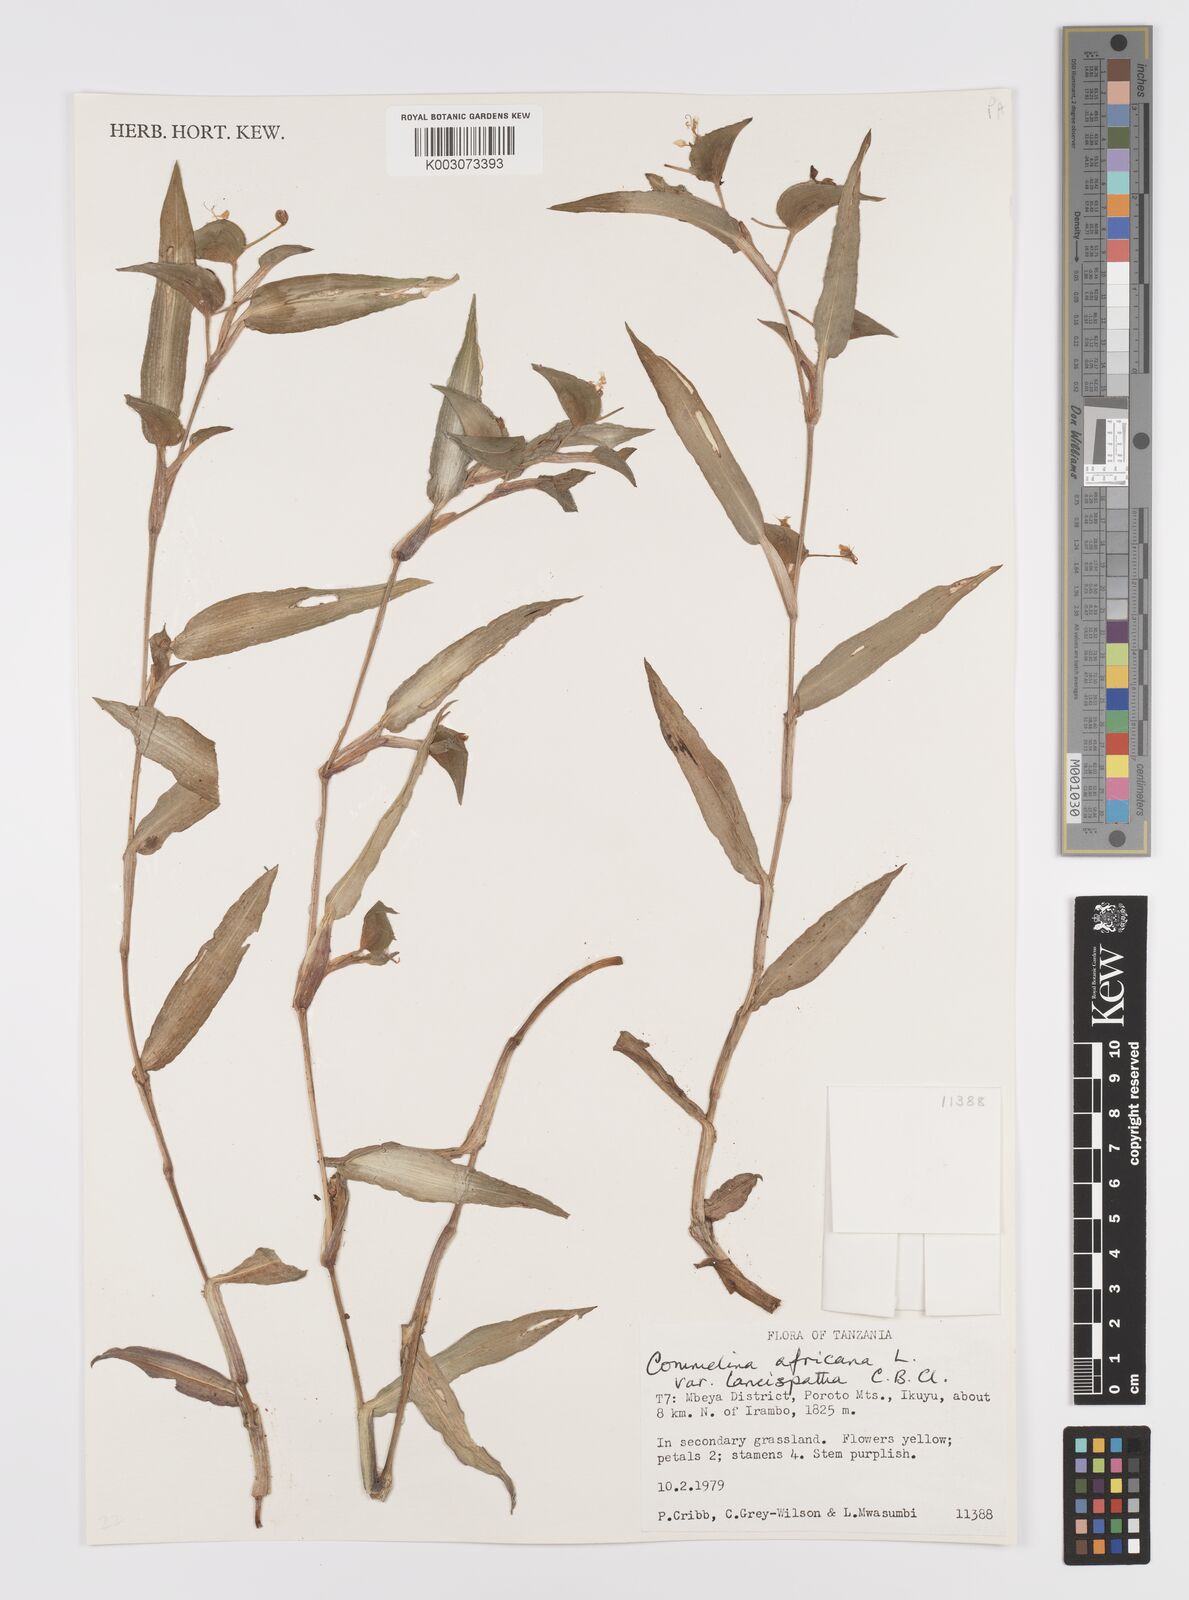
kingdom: Plantae
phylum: Tracheophyta
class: Liliopsida
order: Commelinales
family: Commelinaceae
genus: Commelina
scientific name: Commelina africana
